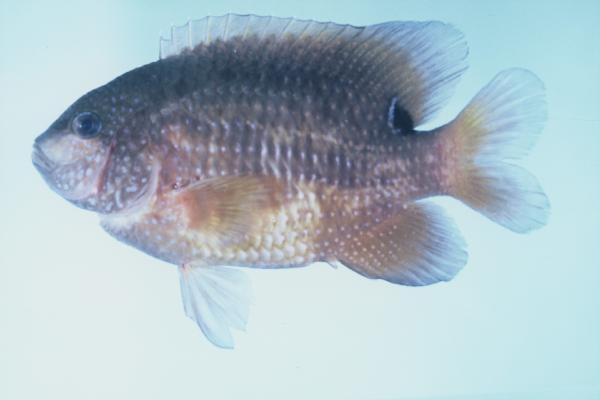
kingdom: Animalia
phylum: Chordata
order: Perciformes
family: Pomacentridae
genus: Stegastes
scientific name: Stegastes lividus
